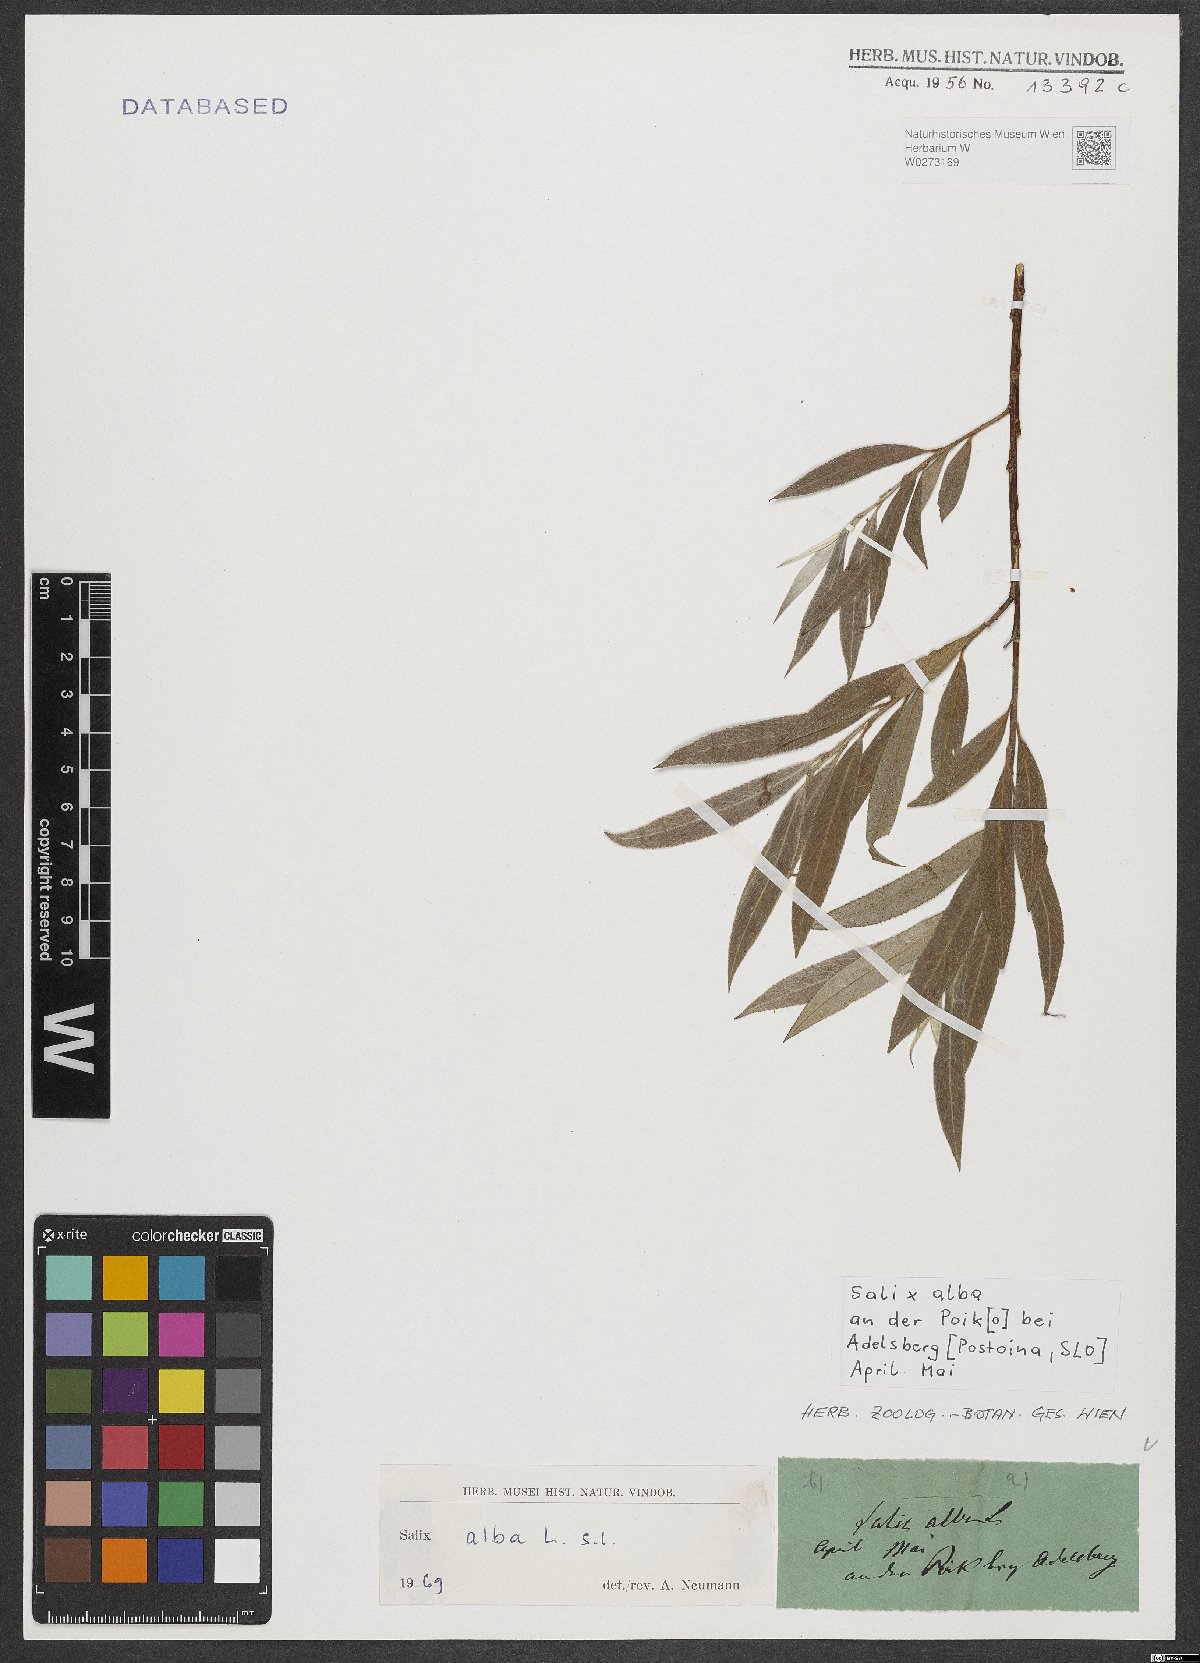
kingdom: Plantae
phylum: Tracheophyta
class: Magnoliopsida
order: Malpighiales
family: Salicaceae
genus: Salix
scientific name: Salix alba
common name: White willow
